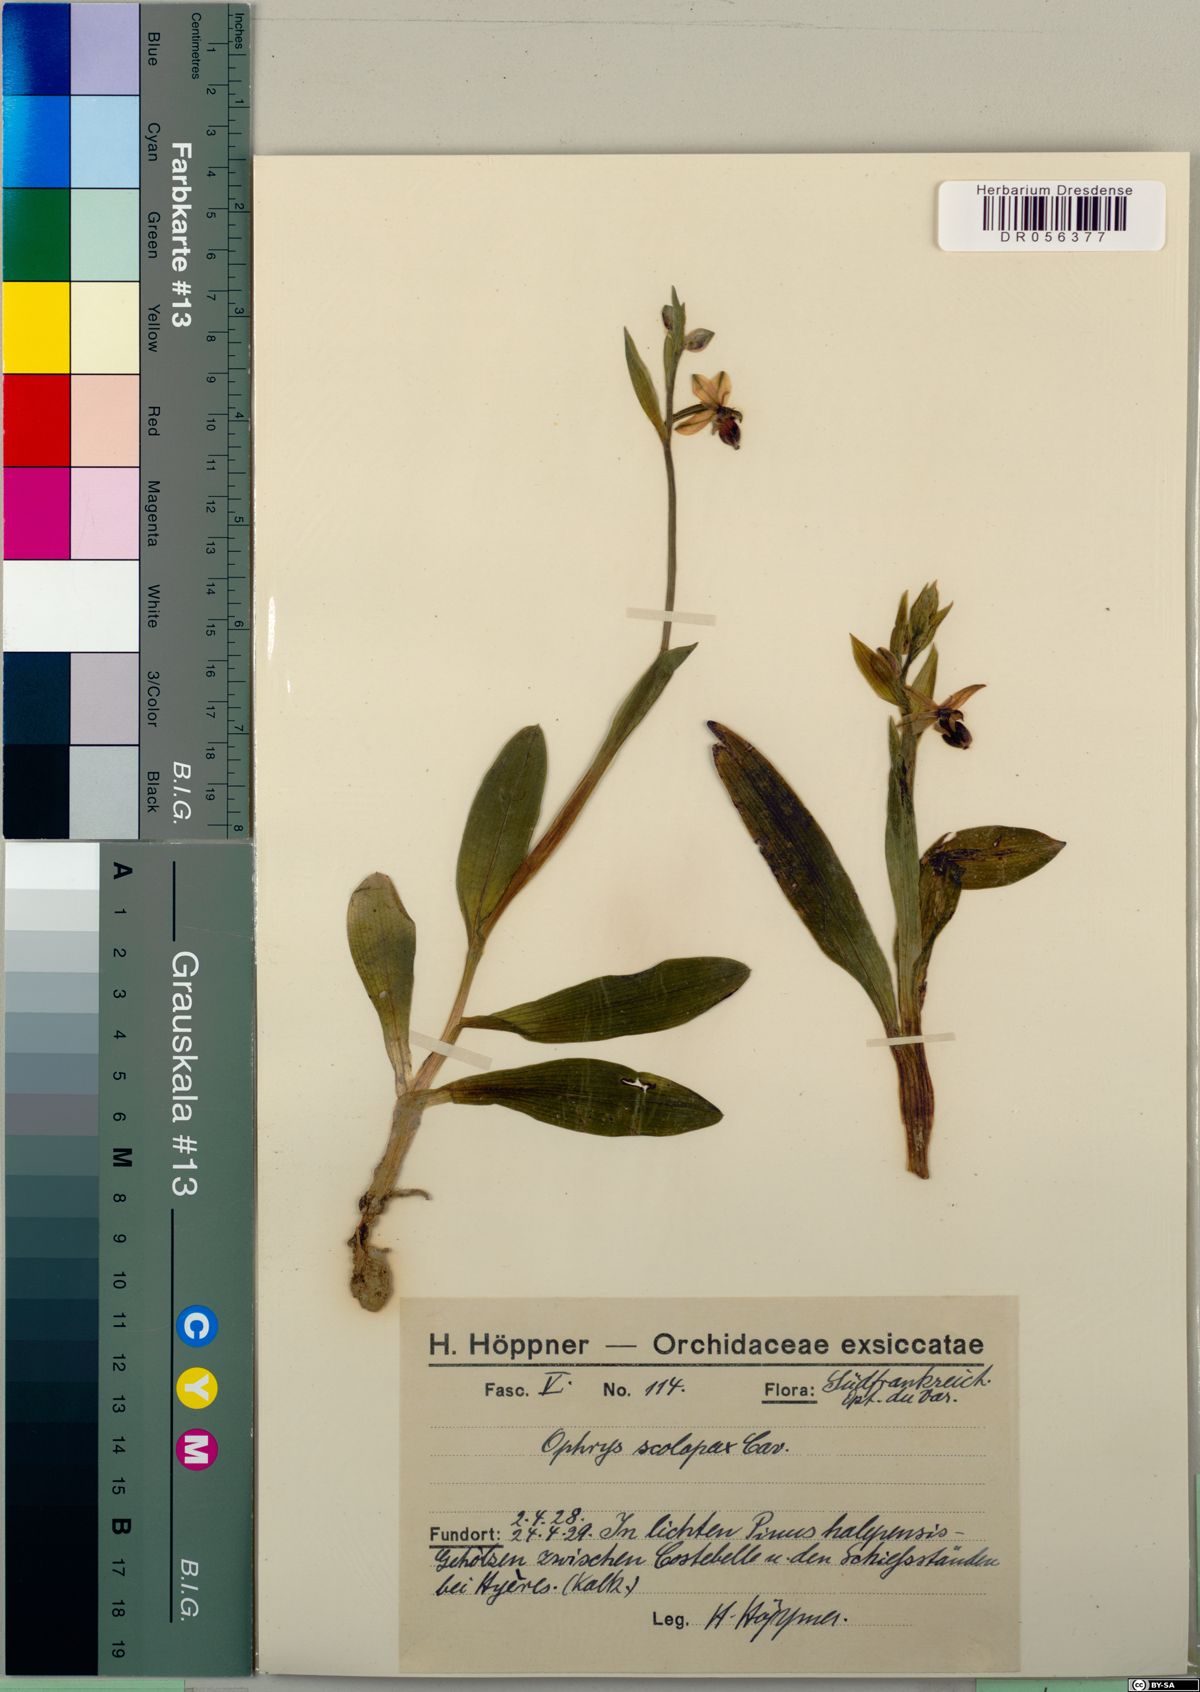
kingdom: Plantae
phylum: Tracheophyta
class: Liliopsida
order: Asparagales
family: Orchidaceae
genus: Ophrys
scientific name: Ophrys scolopax
